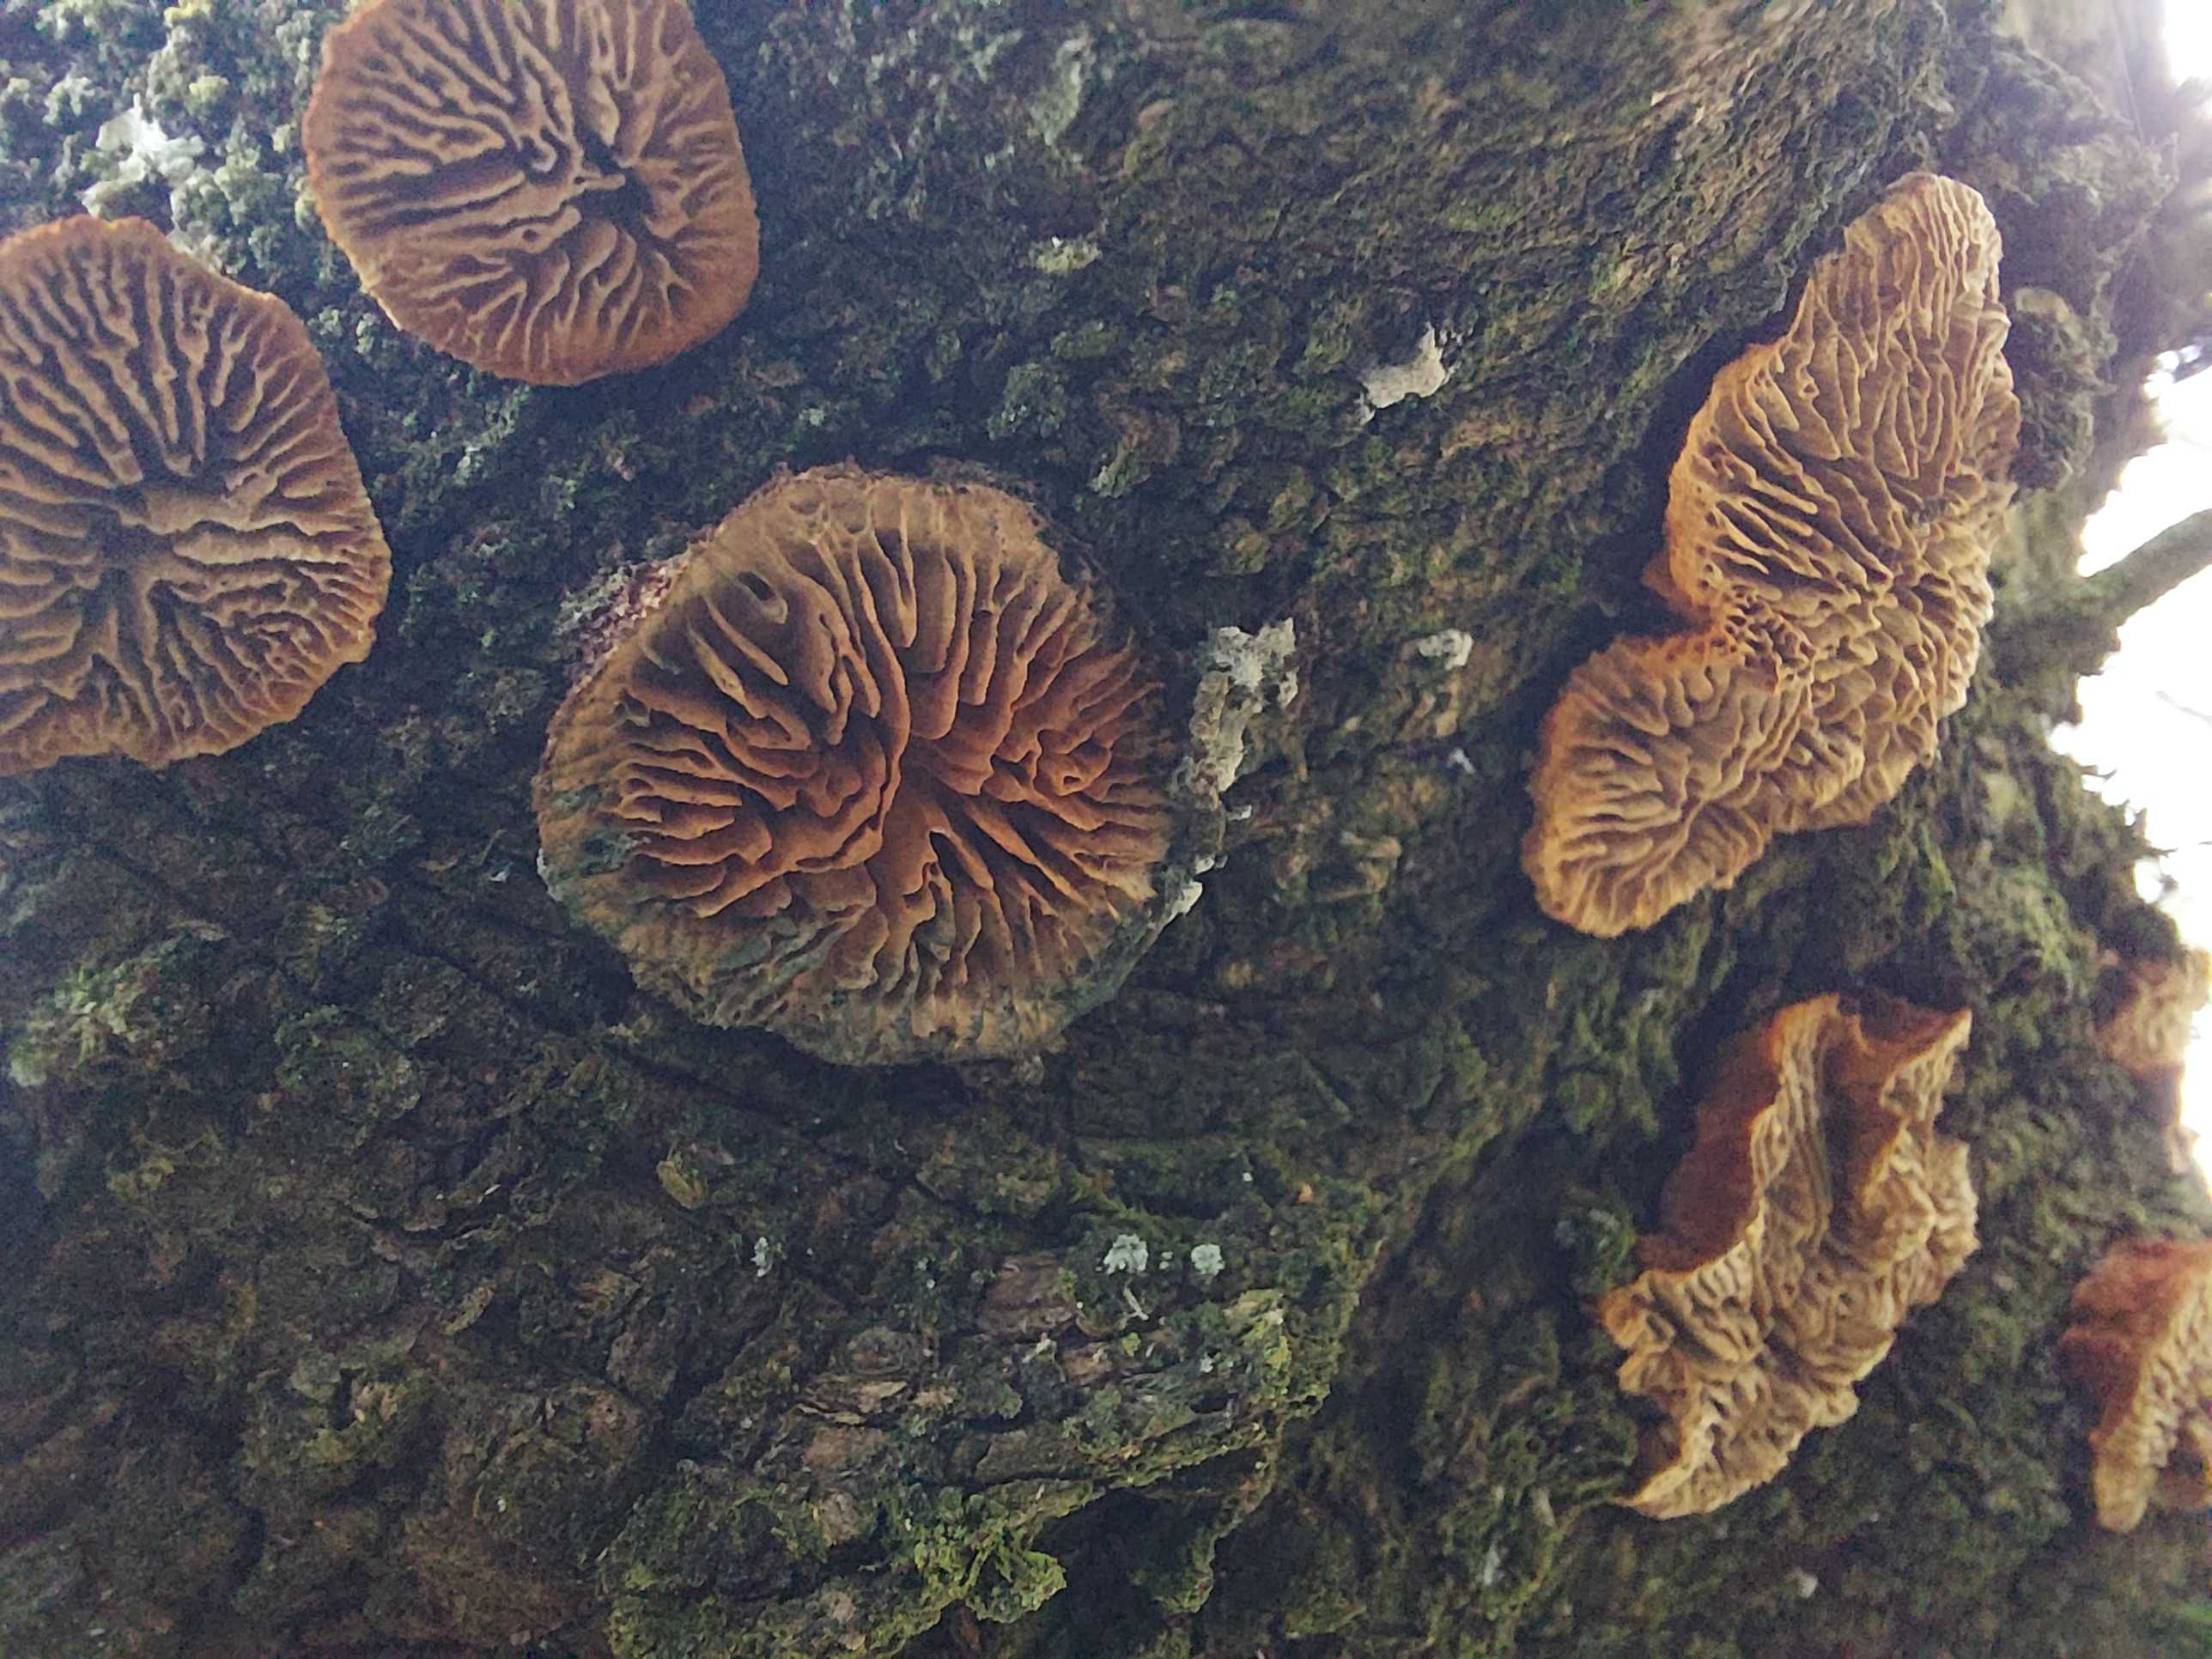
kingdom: Fungi
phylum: Basidiomycota
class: Agaricomycetes
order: Gloeophyllales
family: Gloeophyllaceae
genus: Gloeophyllum
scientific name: Gloeophyllum sepiarium
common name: fyrre-korkhat
